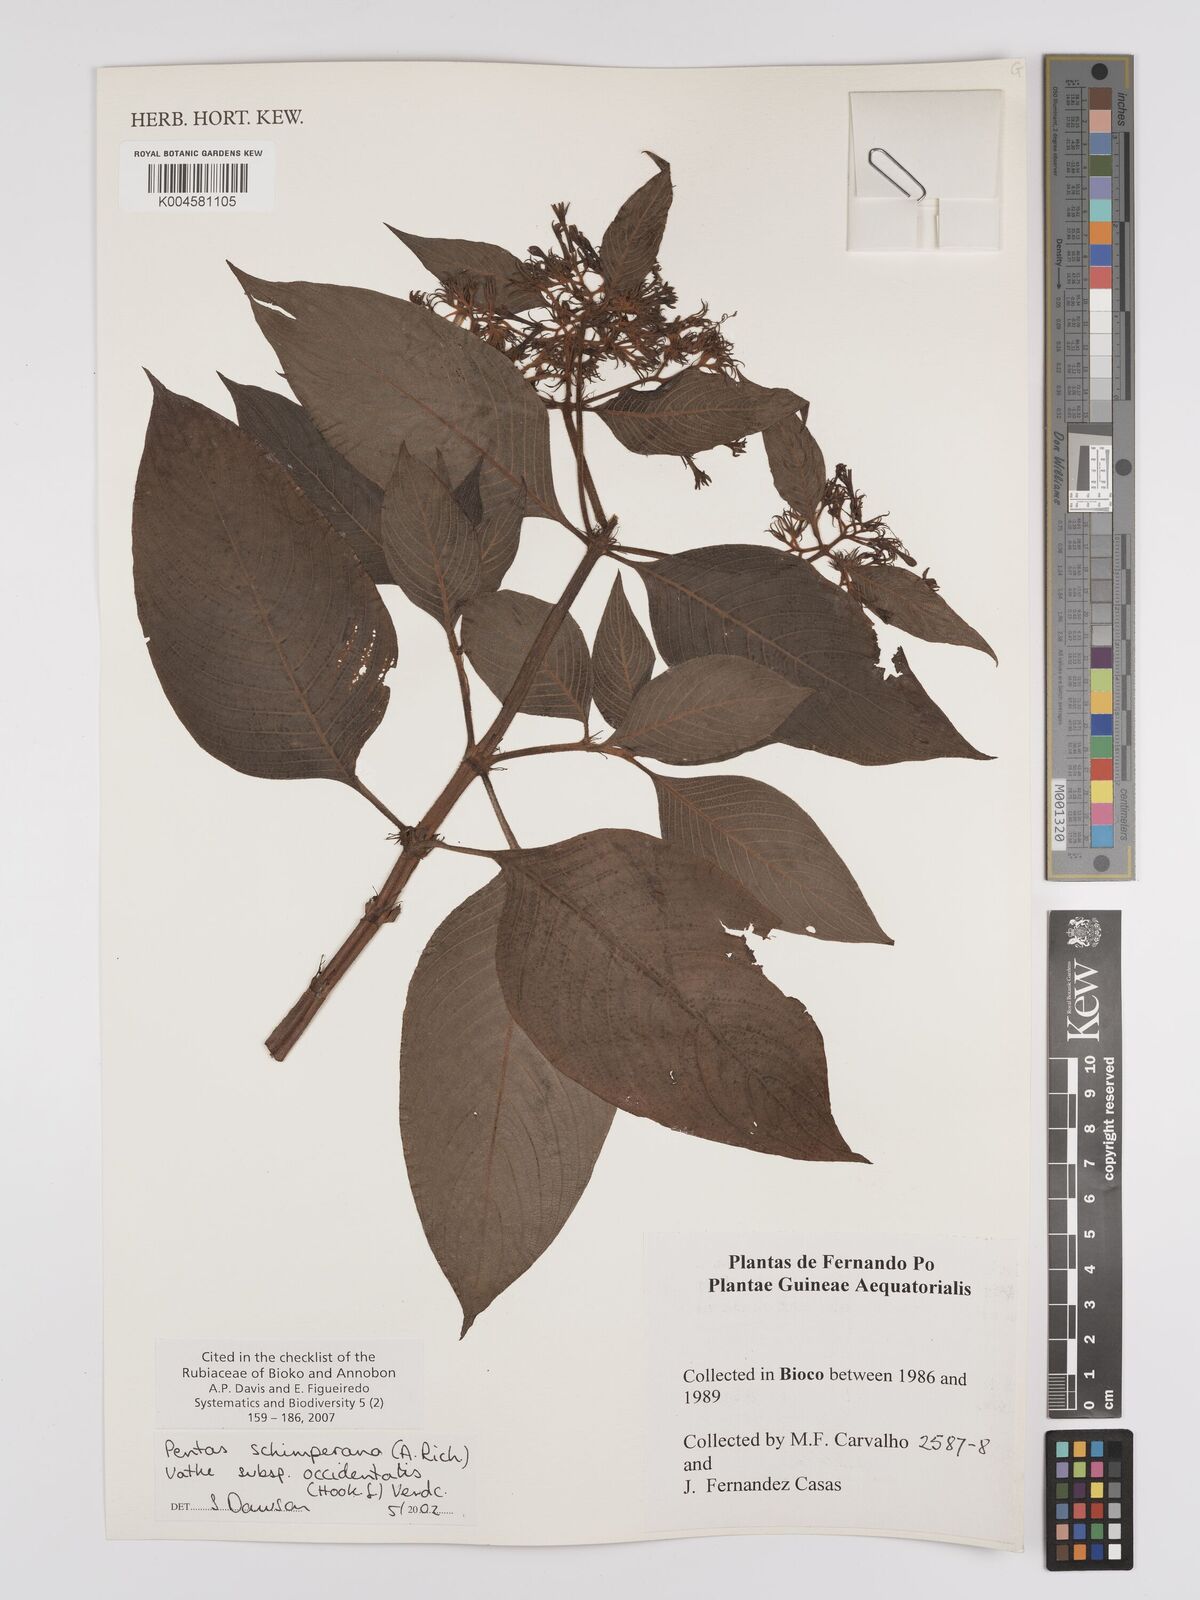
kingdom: Plantae
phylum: Tracheophyta
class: Magnoliopsida
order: Gentianales
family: Rubiaceae
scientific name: Rubiaceae
